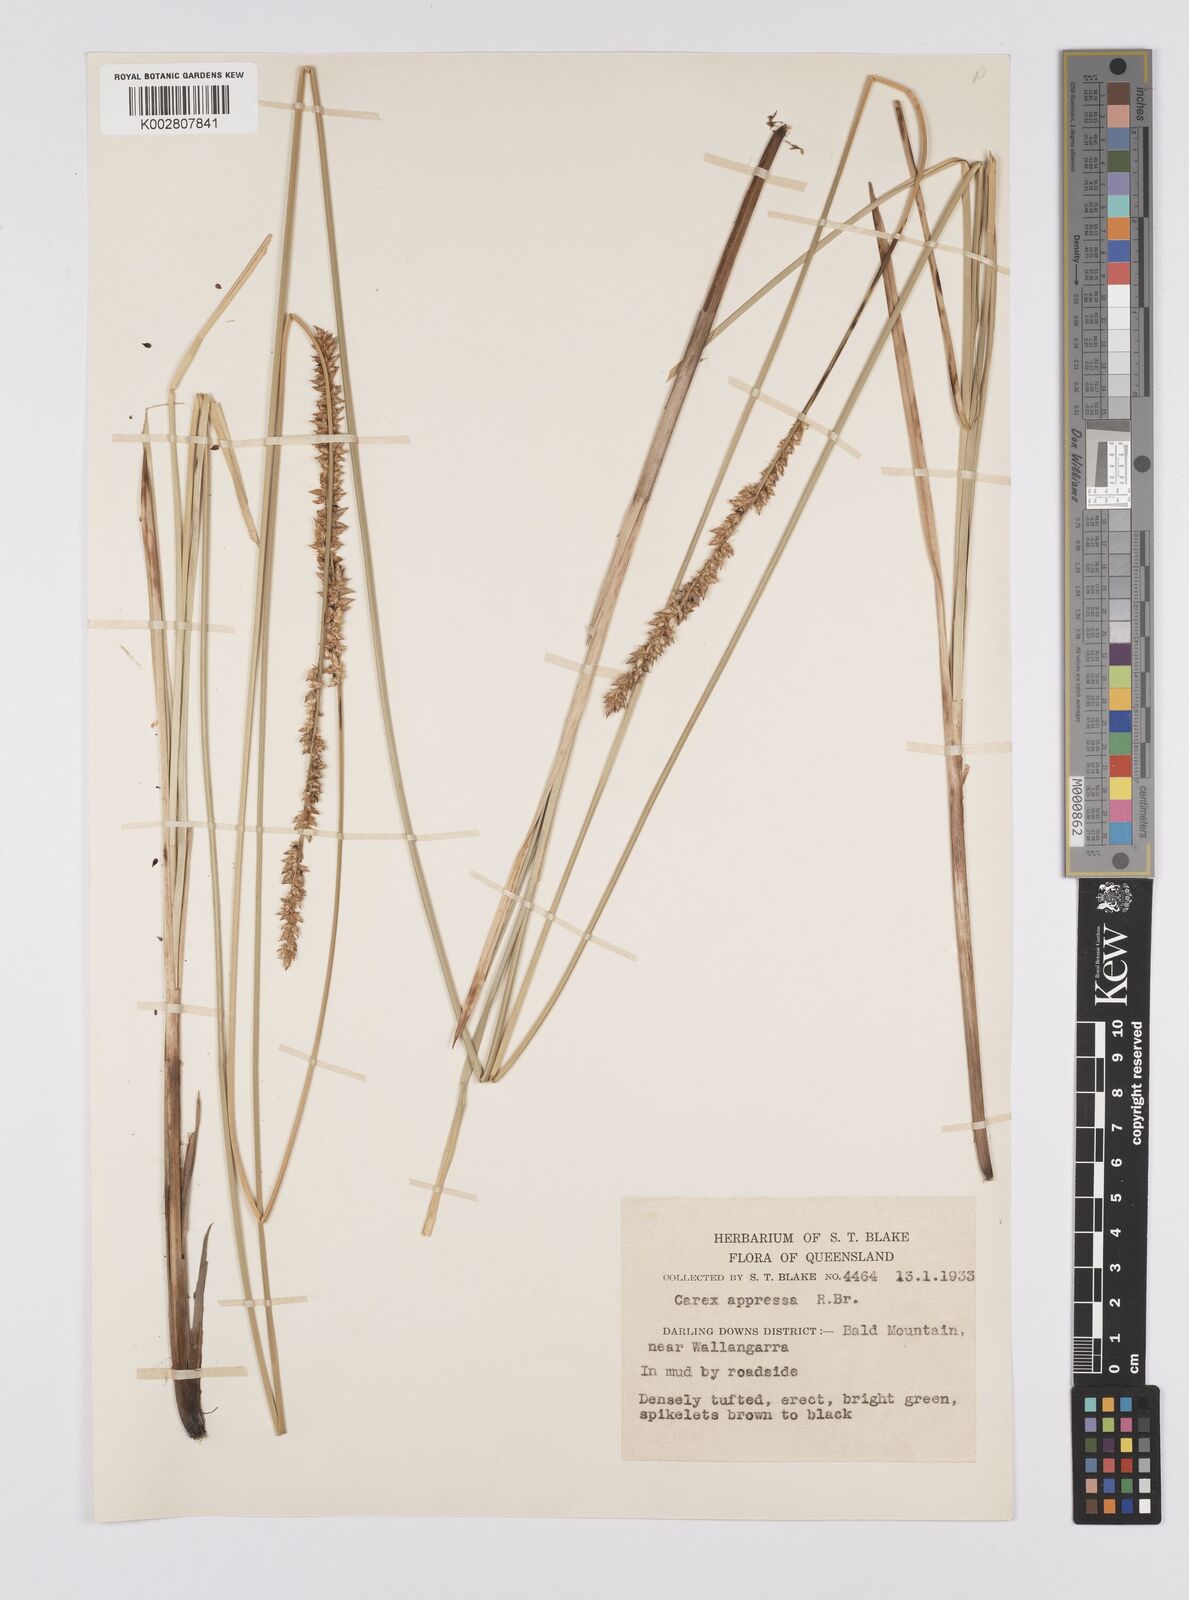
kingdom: Plantae
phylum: Tracheophyta
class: Liliopsida
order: Poales
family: Cyperaceae
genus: Carex
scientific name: Carex appressa
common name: Tussock sedge
